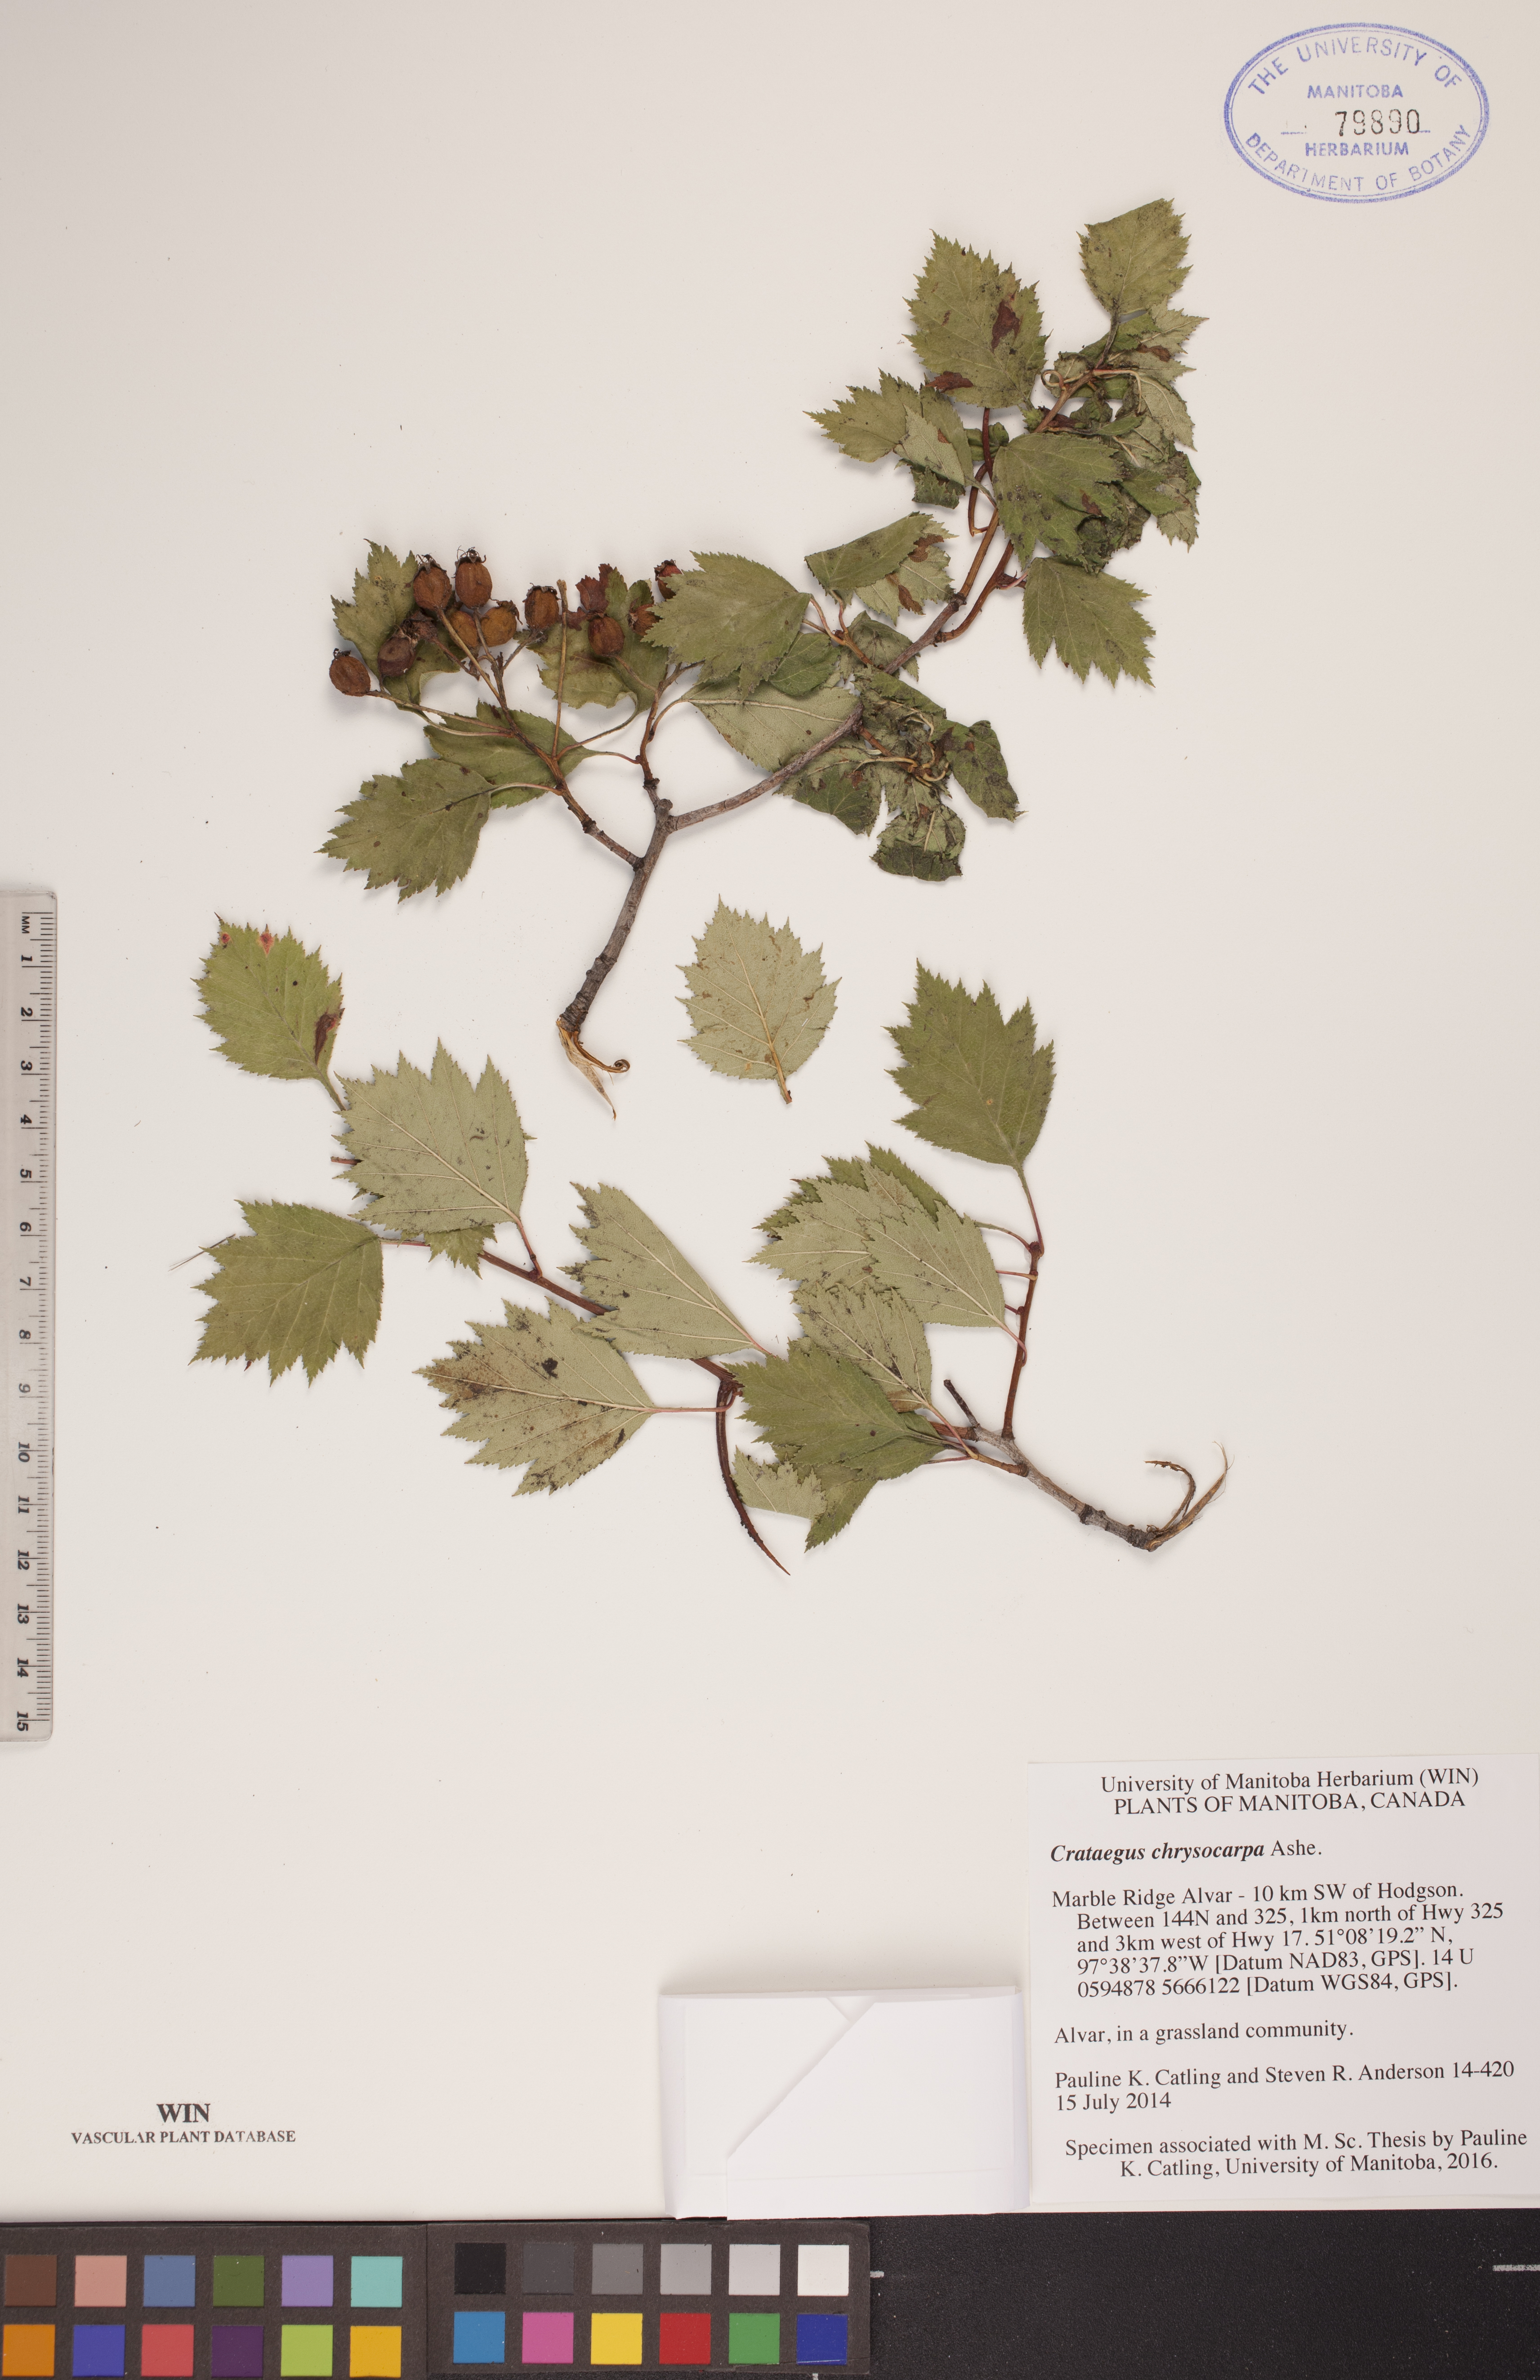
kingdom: Plantae
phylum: Tracheophyta
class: Magnoliopsida
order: Rosales
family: Rosaceae
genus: Crataegus
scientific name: Crataegus chrysocarpa
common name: Fire-berry hawthorn
